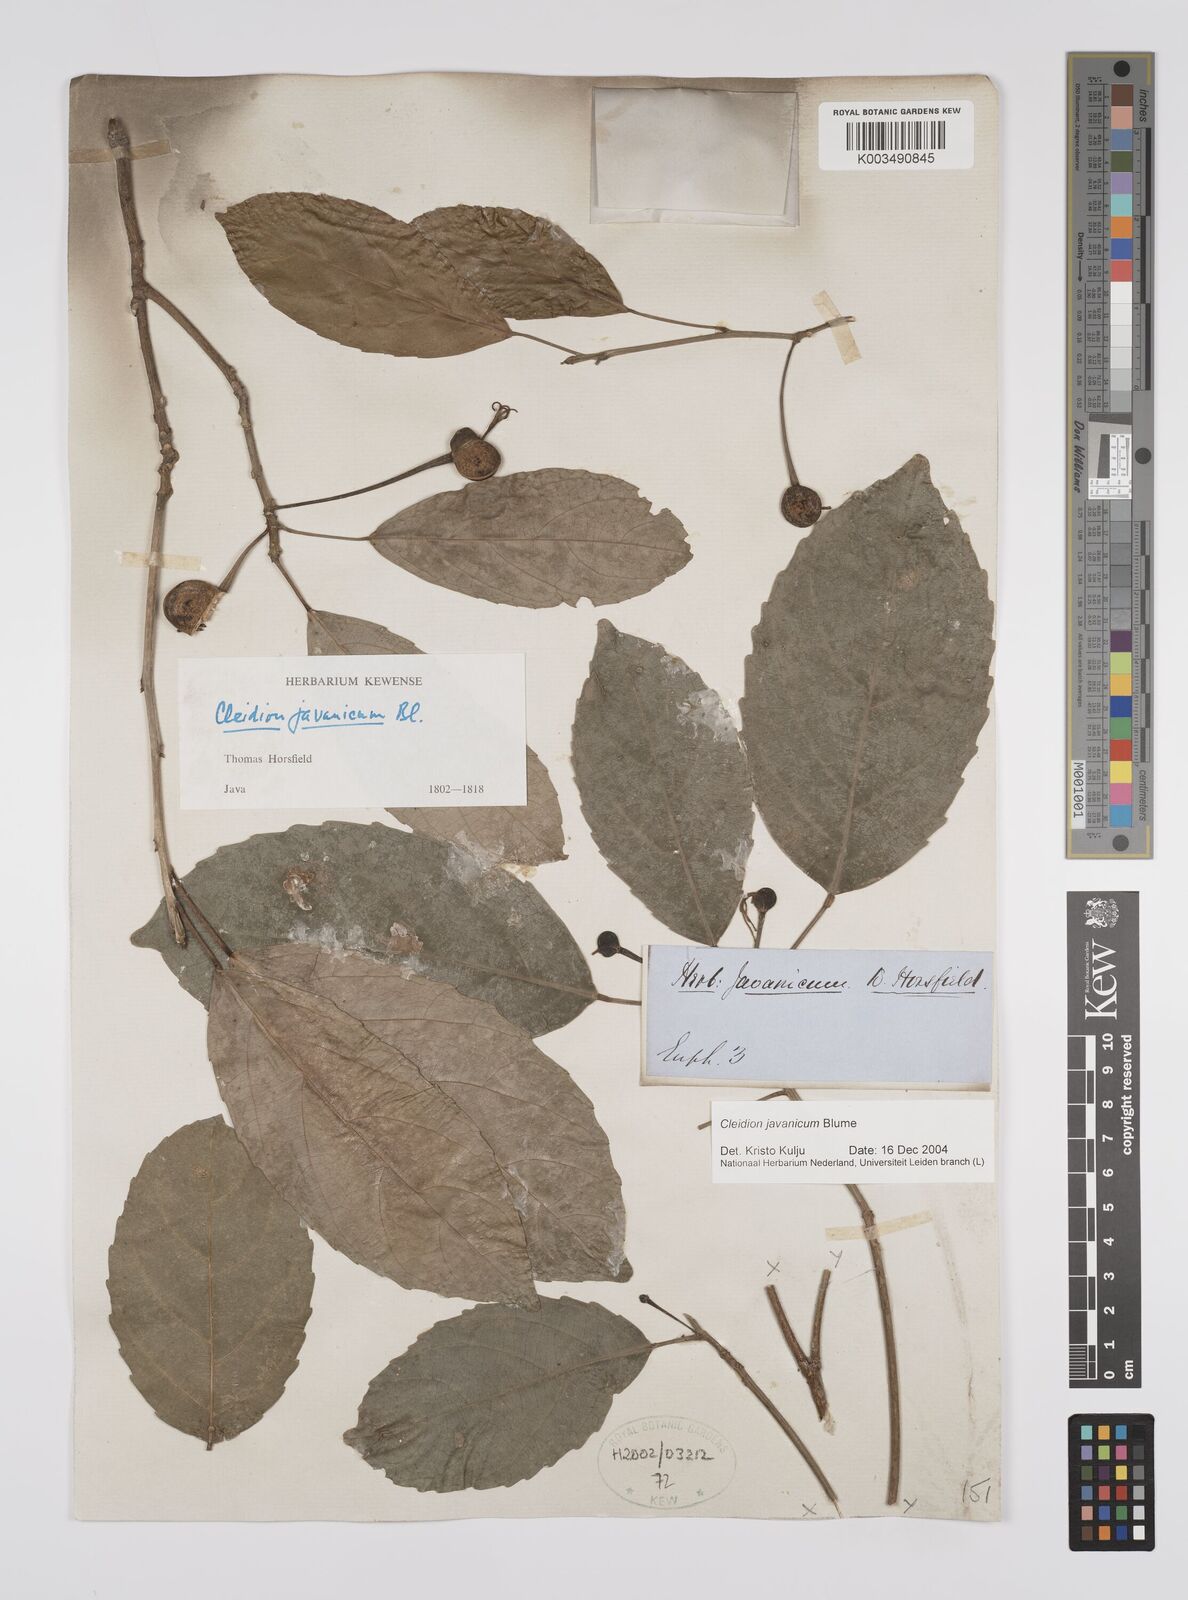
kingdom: Plantae
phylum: Tracheophyta
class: Magnoliopsida
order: Malpighiales
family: Euphorbiaceae
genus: Acalypha
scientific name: Acalypha spiciflora
